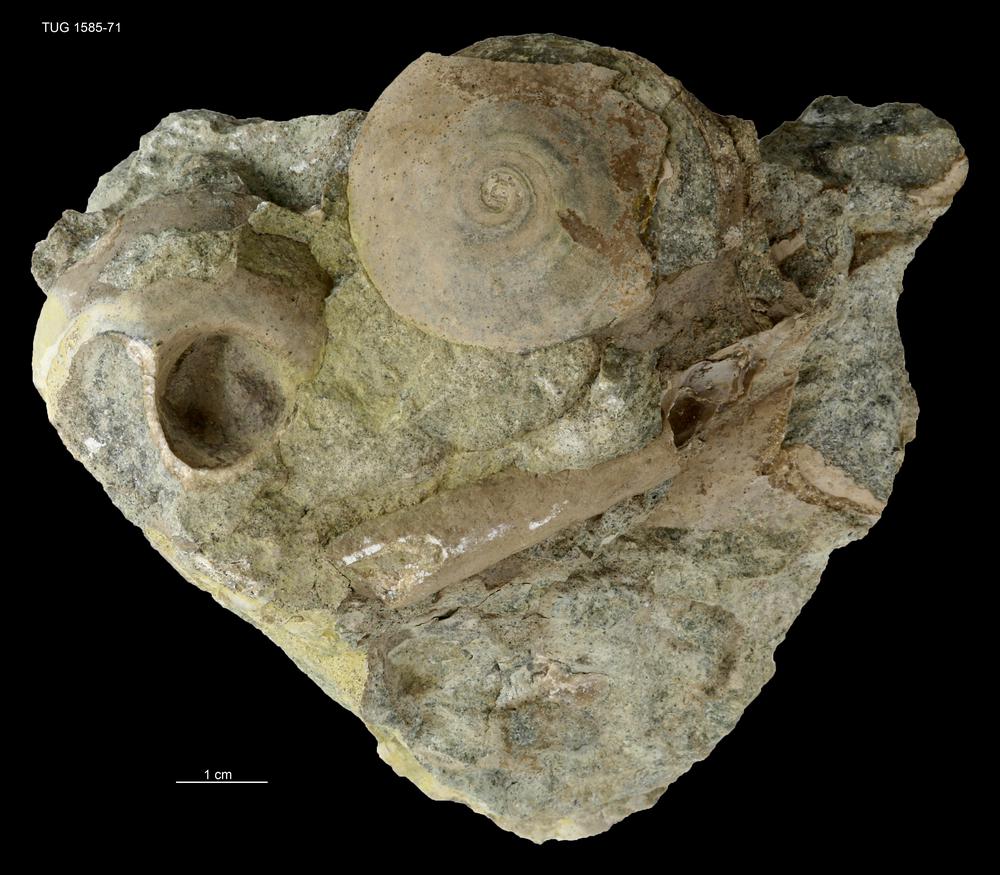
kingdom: Animalia
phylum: Mollusca
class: Gastropoda
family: Lesueurillidae
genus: Pararaphistoma
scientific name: Pararaphistoma Helicites qualteriata
